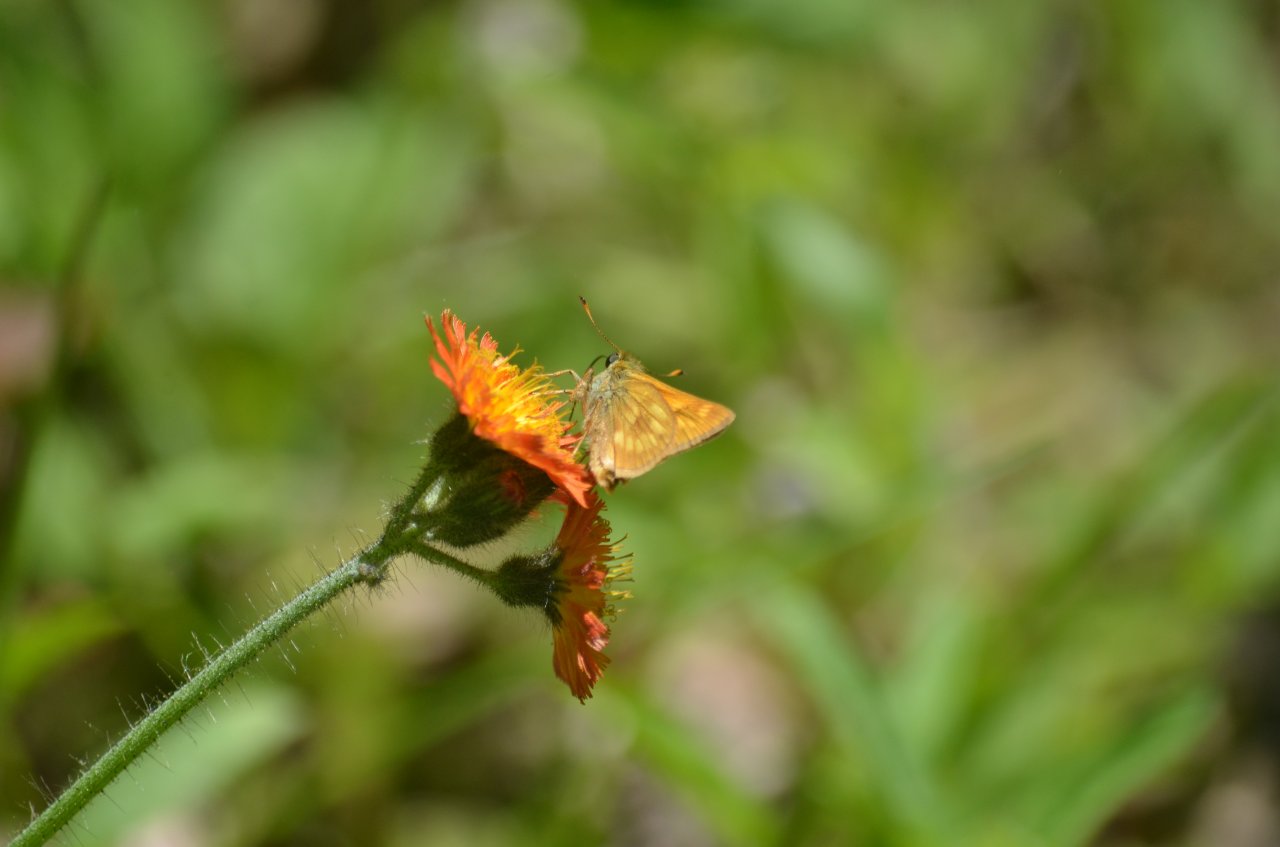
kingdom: Animalia
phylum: Arthropoda
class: Insecta
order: Lepidoptera
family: Hesperiidae
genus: Polites
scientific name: Polites
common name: Long Dash Skipper
